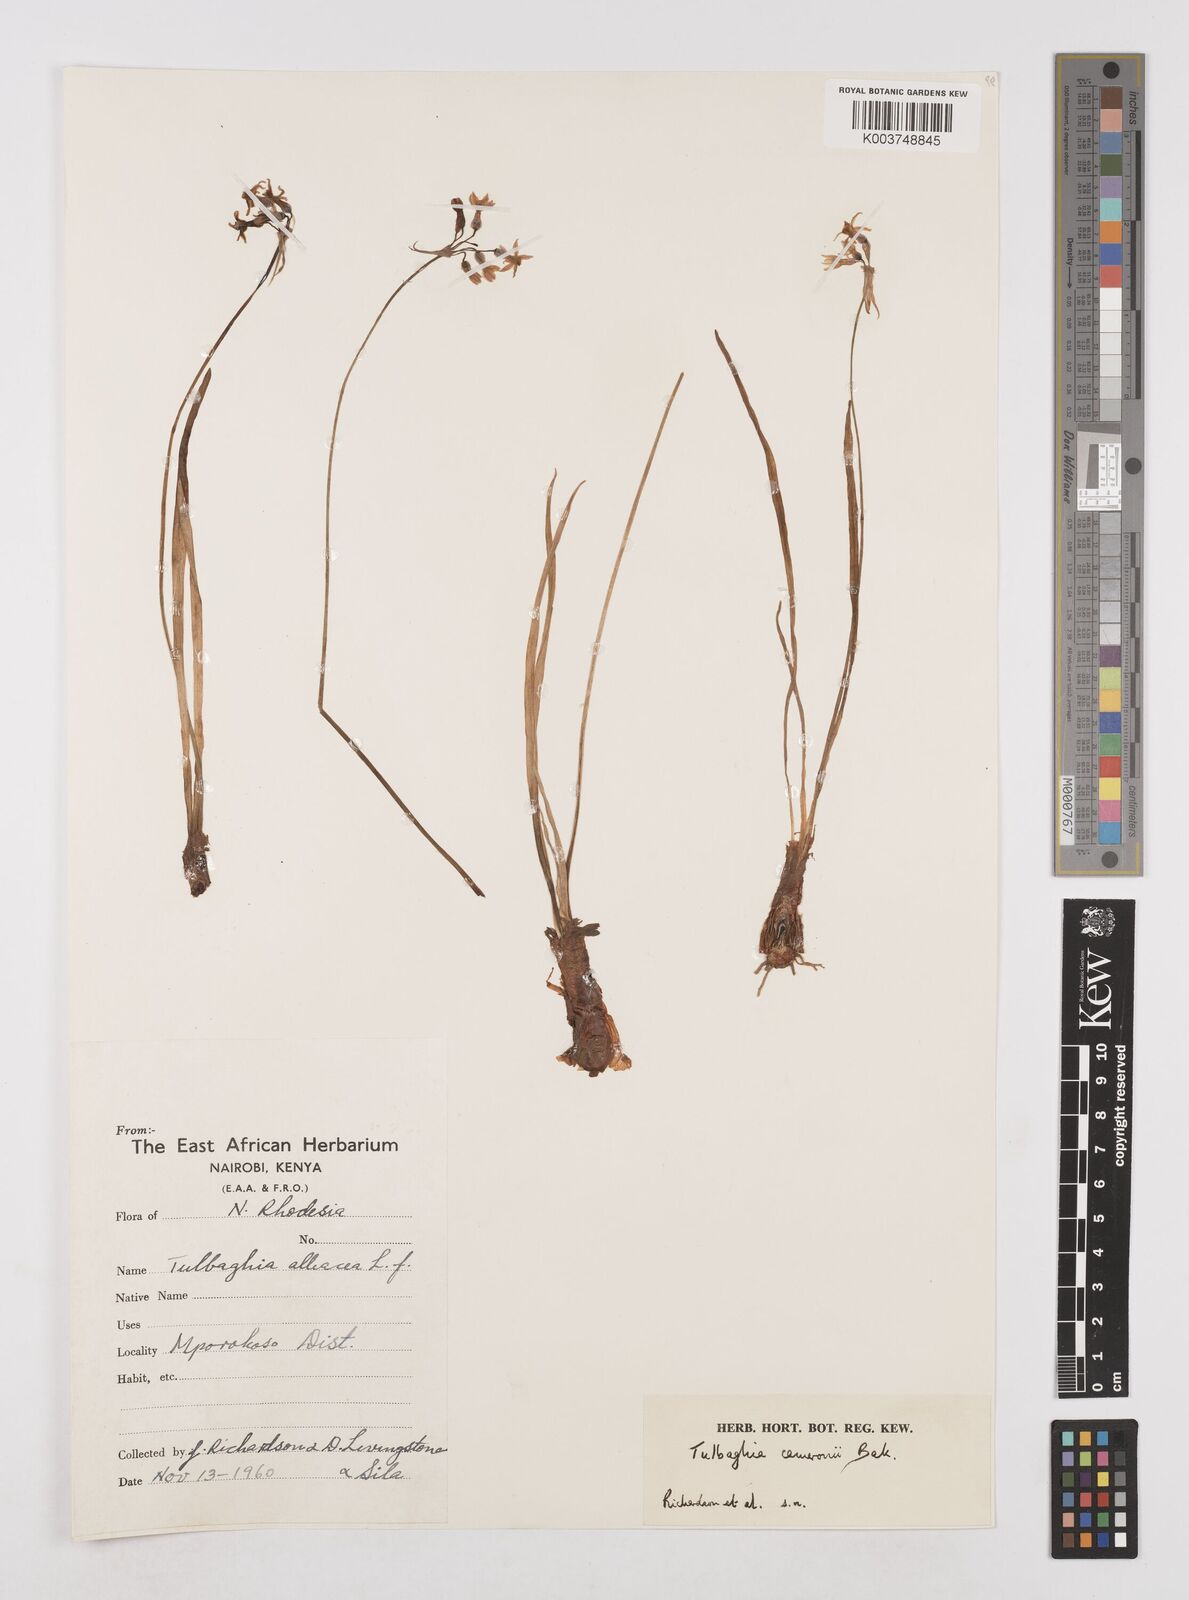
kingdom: Plantae
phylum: Tracheophyta
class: Liliopsida
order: Asparagales
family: Amaryllidaceae
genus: Tulbaghia
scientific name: Tulbaghia cameronii
